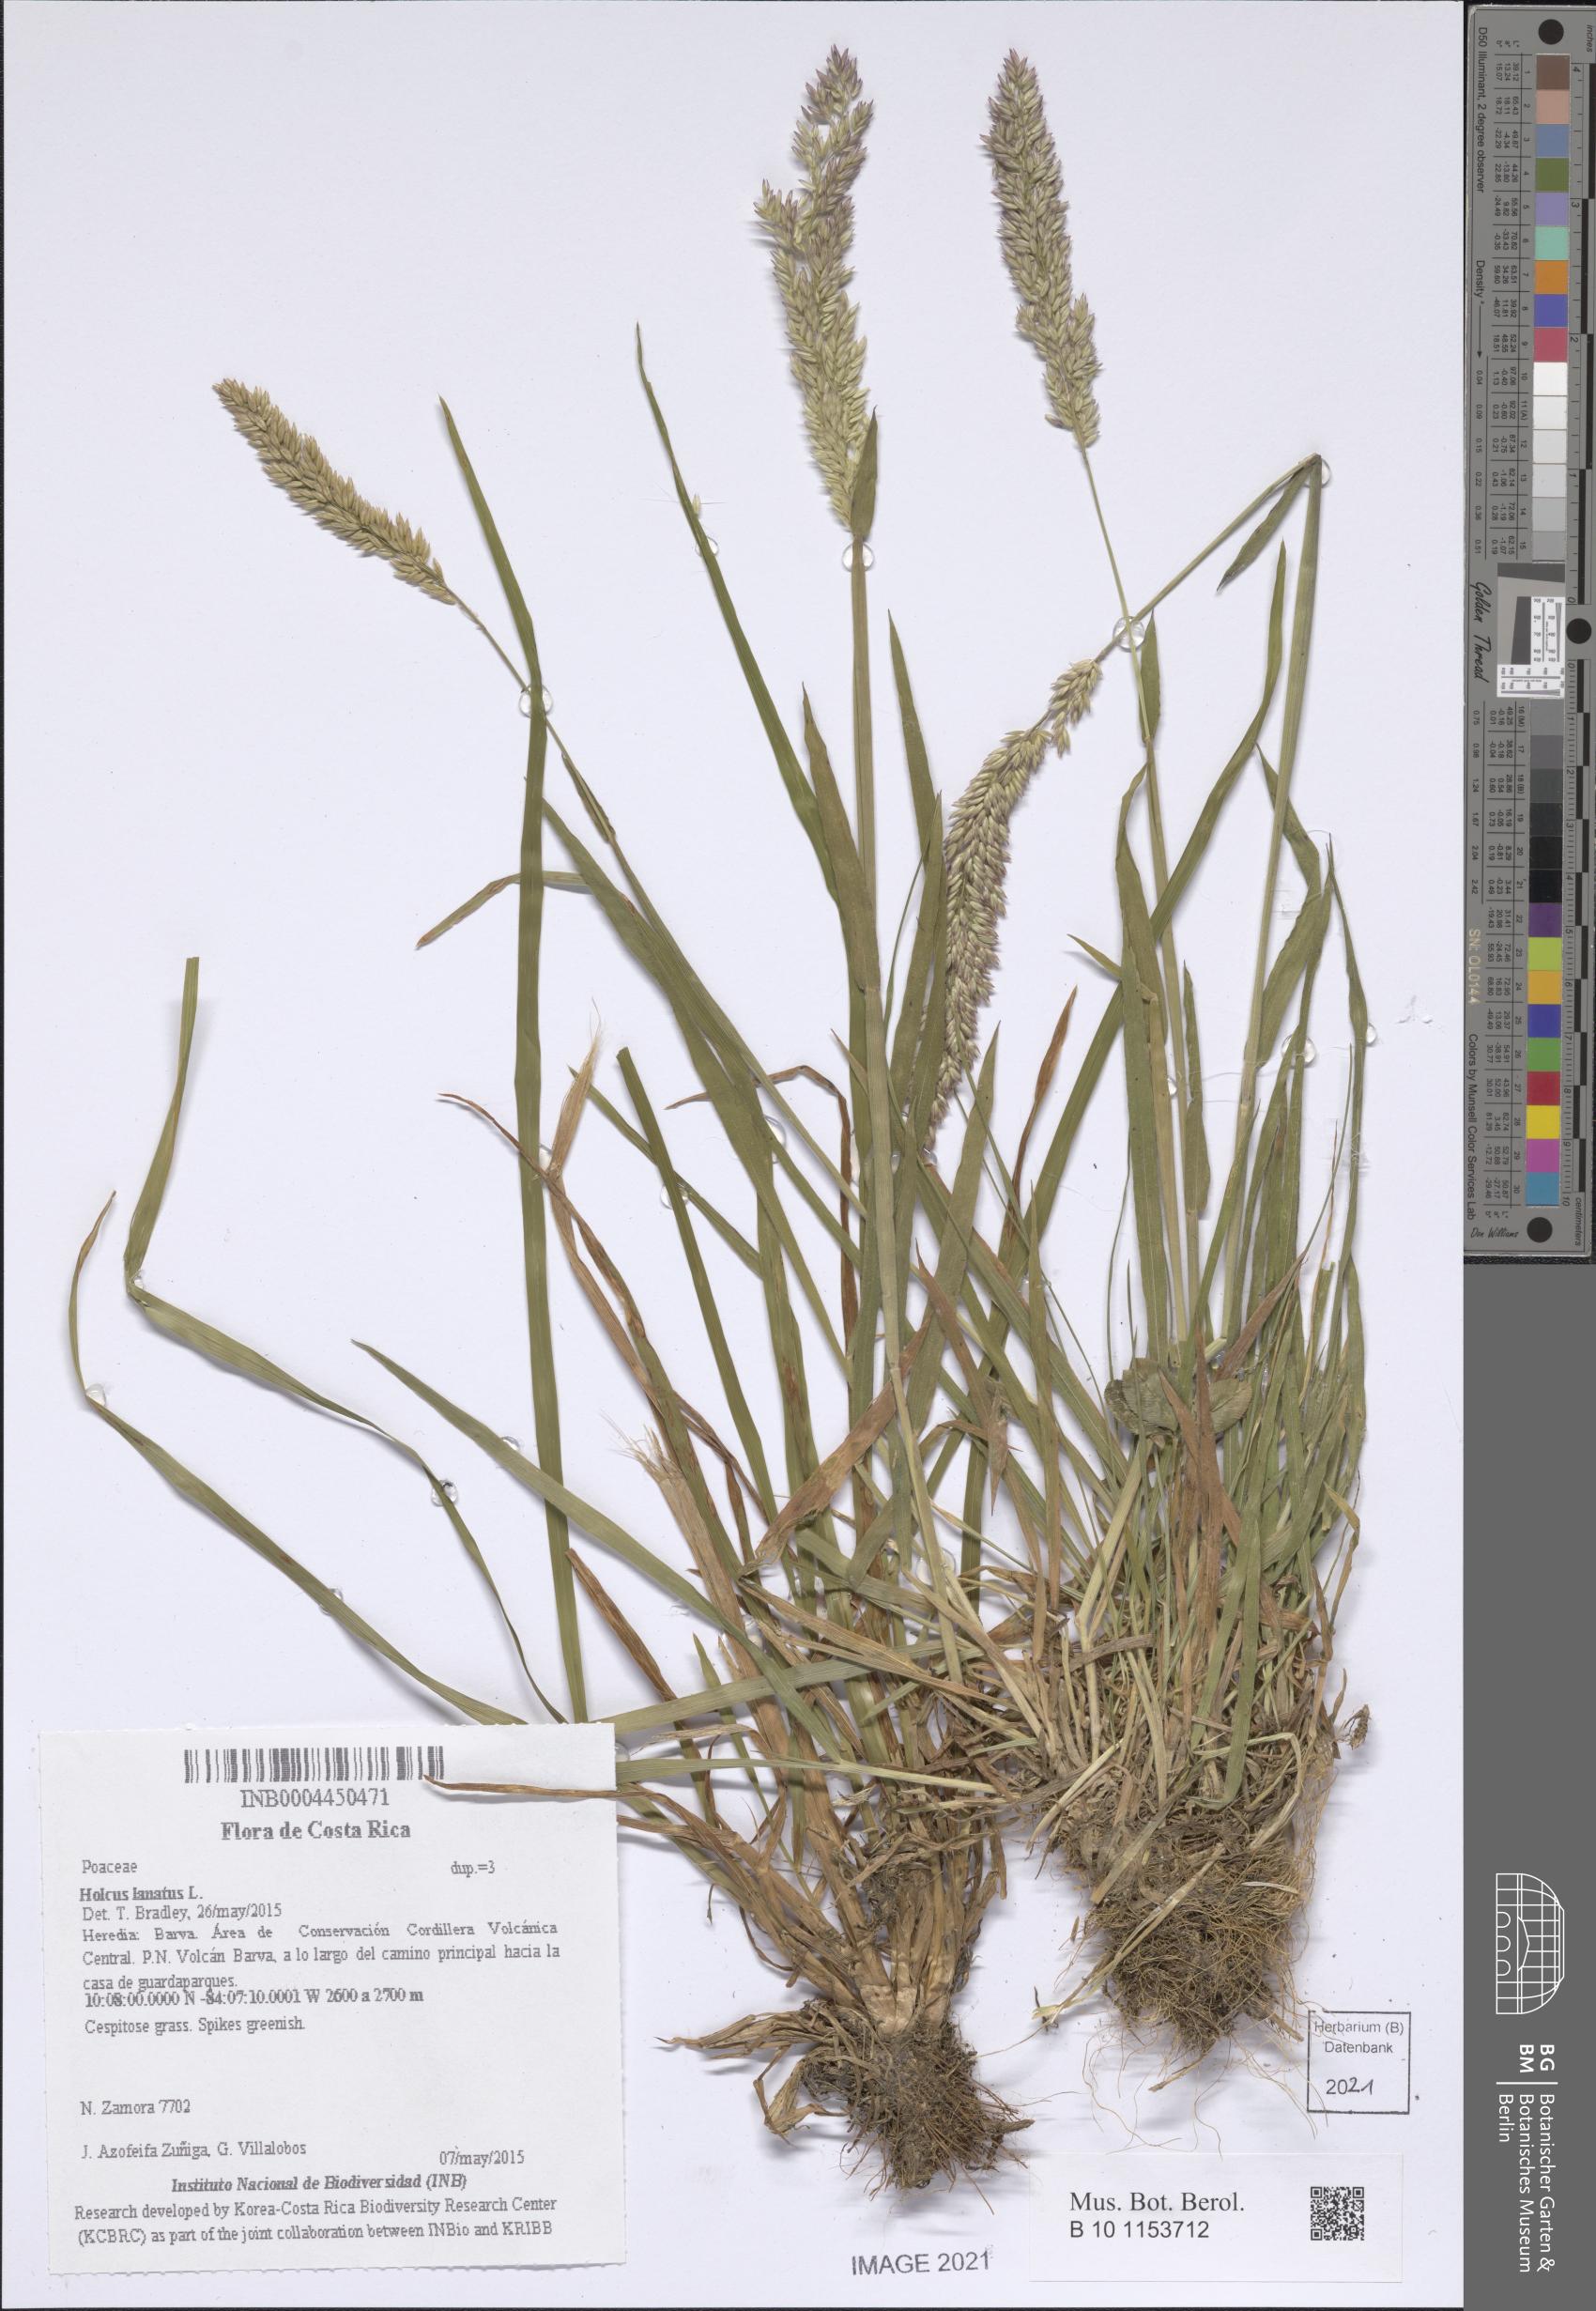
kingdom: Plantae
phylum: Tracheophyta
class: Liliopsida
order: Poales
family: Poaceae
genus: Holcus
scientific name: Holcus lanatus
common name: Yorkshire-fog
